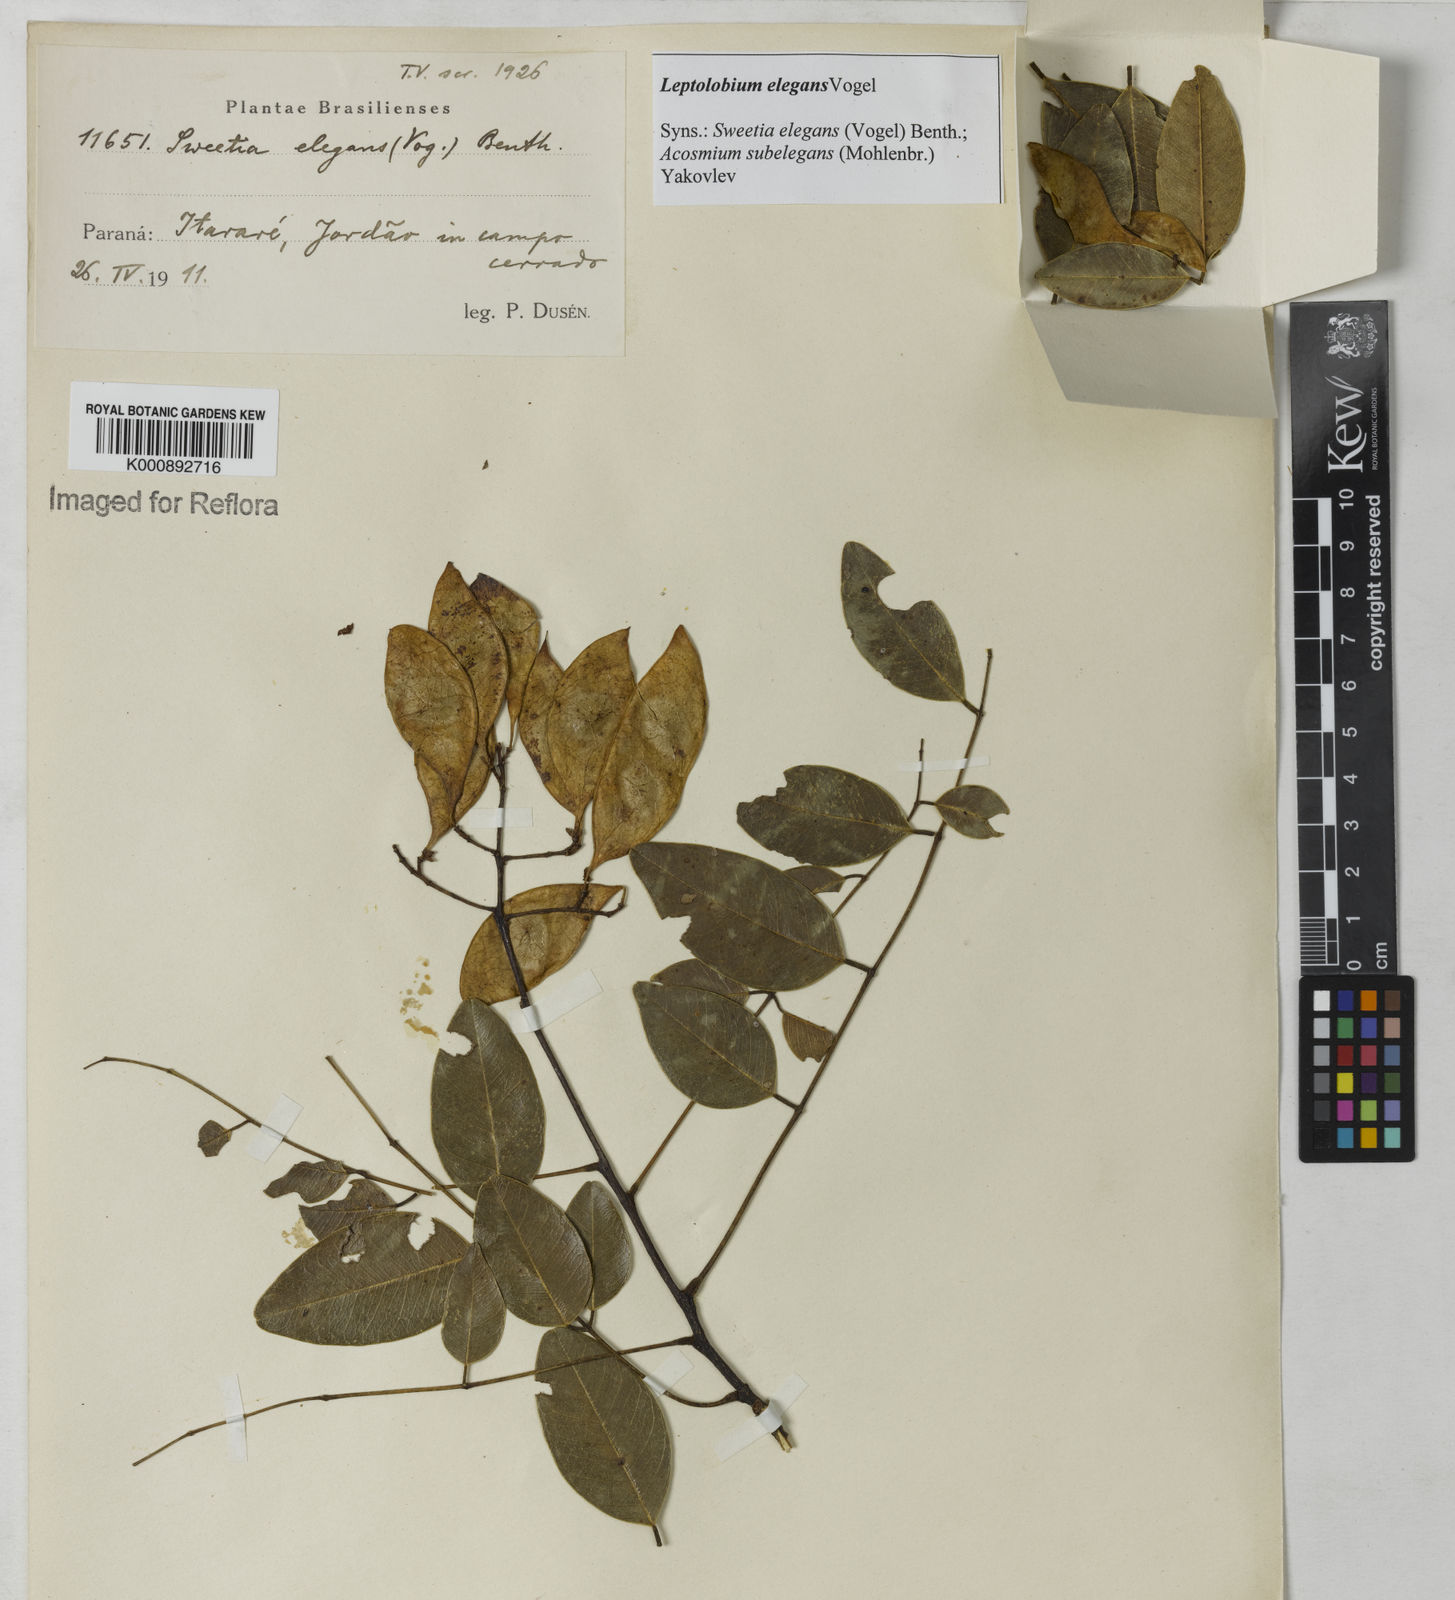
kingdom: Plantae
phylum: Tracheophyta
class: Magnoliopsida
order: Fabales
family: Fabaceae
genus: Leptolobium
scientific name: Leptolobium elegans
